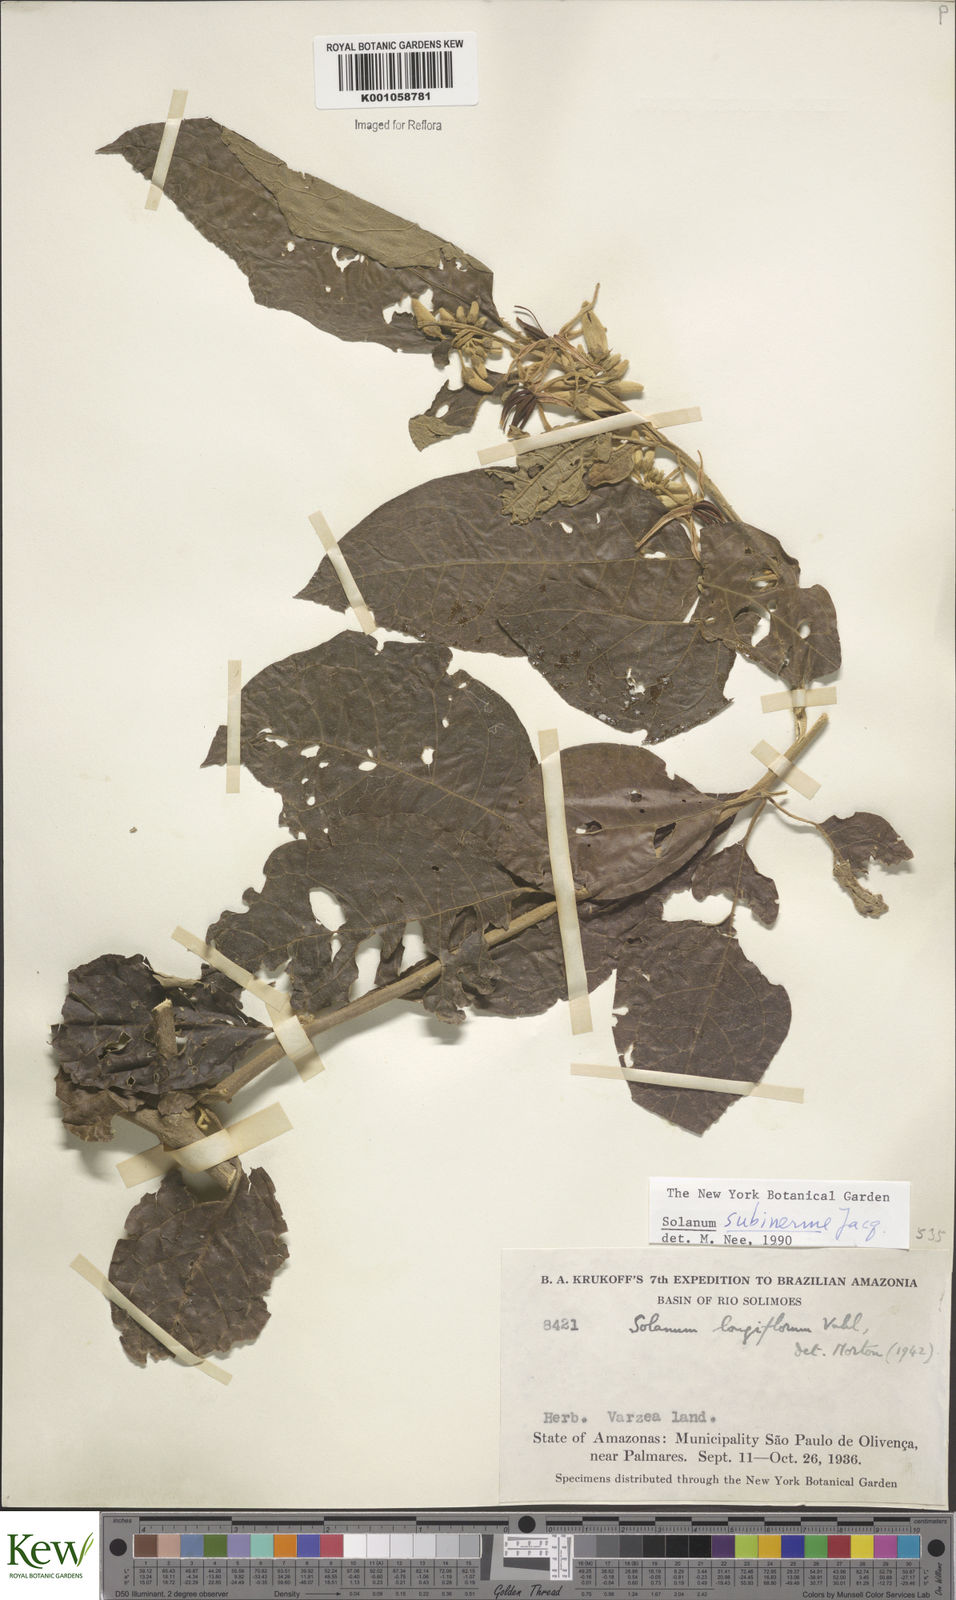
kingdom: Plantae
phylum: Tracheophyta
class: Magnoliopsida
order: Solanales
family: Solanaceae
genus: Solanum
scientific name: Solanum subinerme
